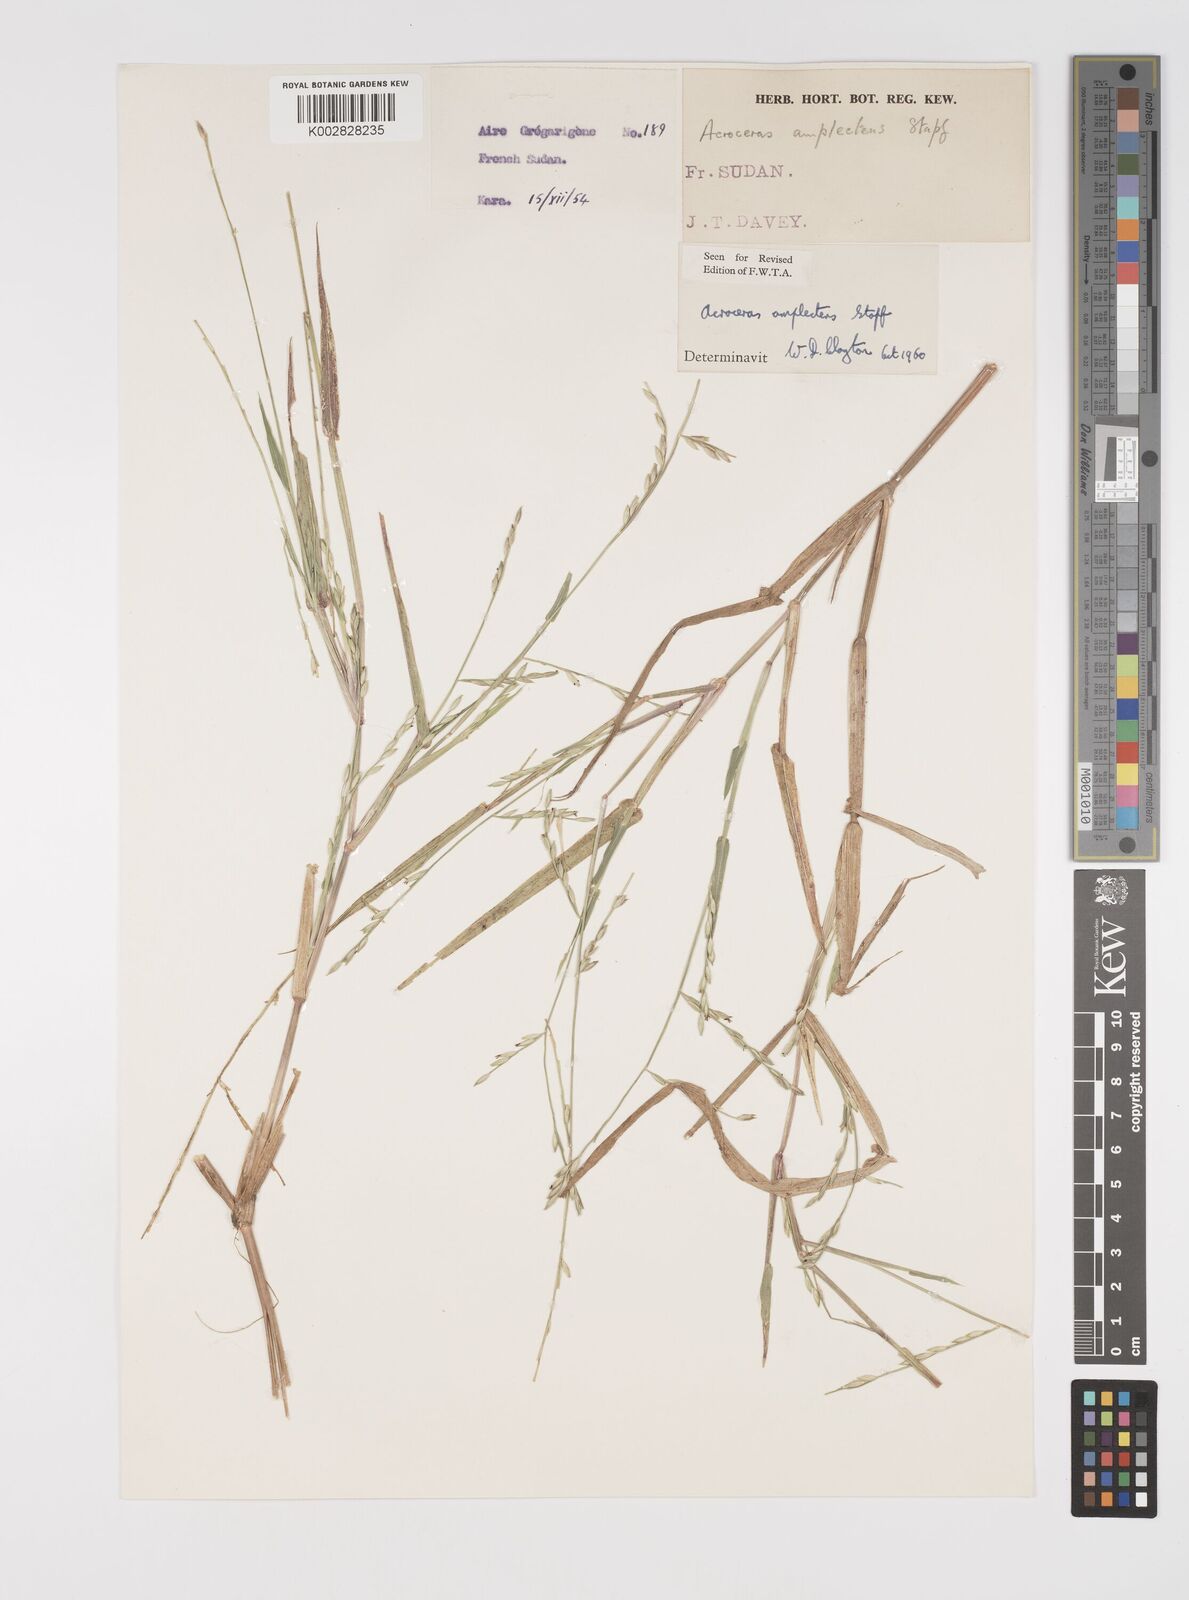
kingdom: Plantae
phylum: Tracheophyta
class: Liliopsida
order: Poales
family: Poaceae
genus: Acroceras
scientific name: Acroceras amplectens
